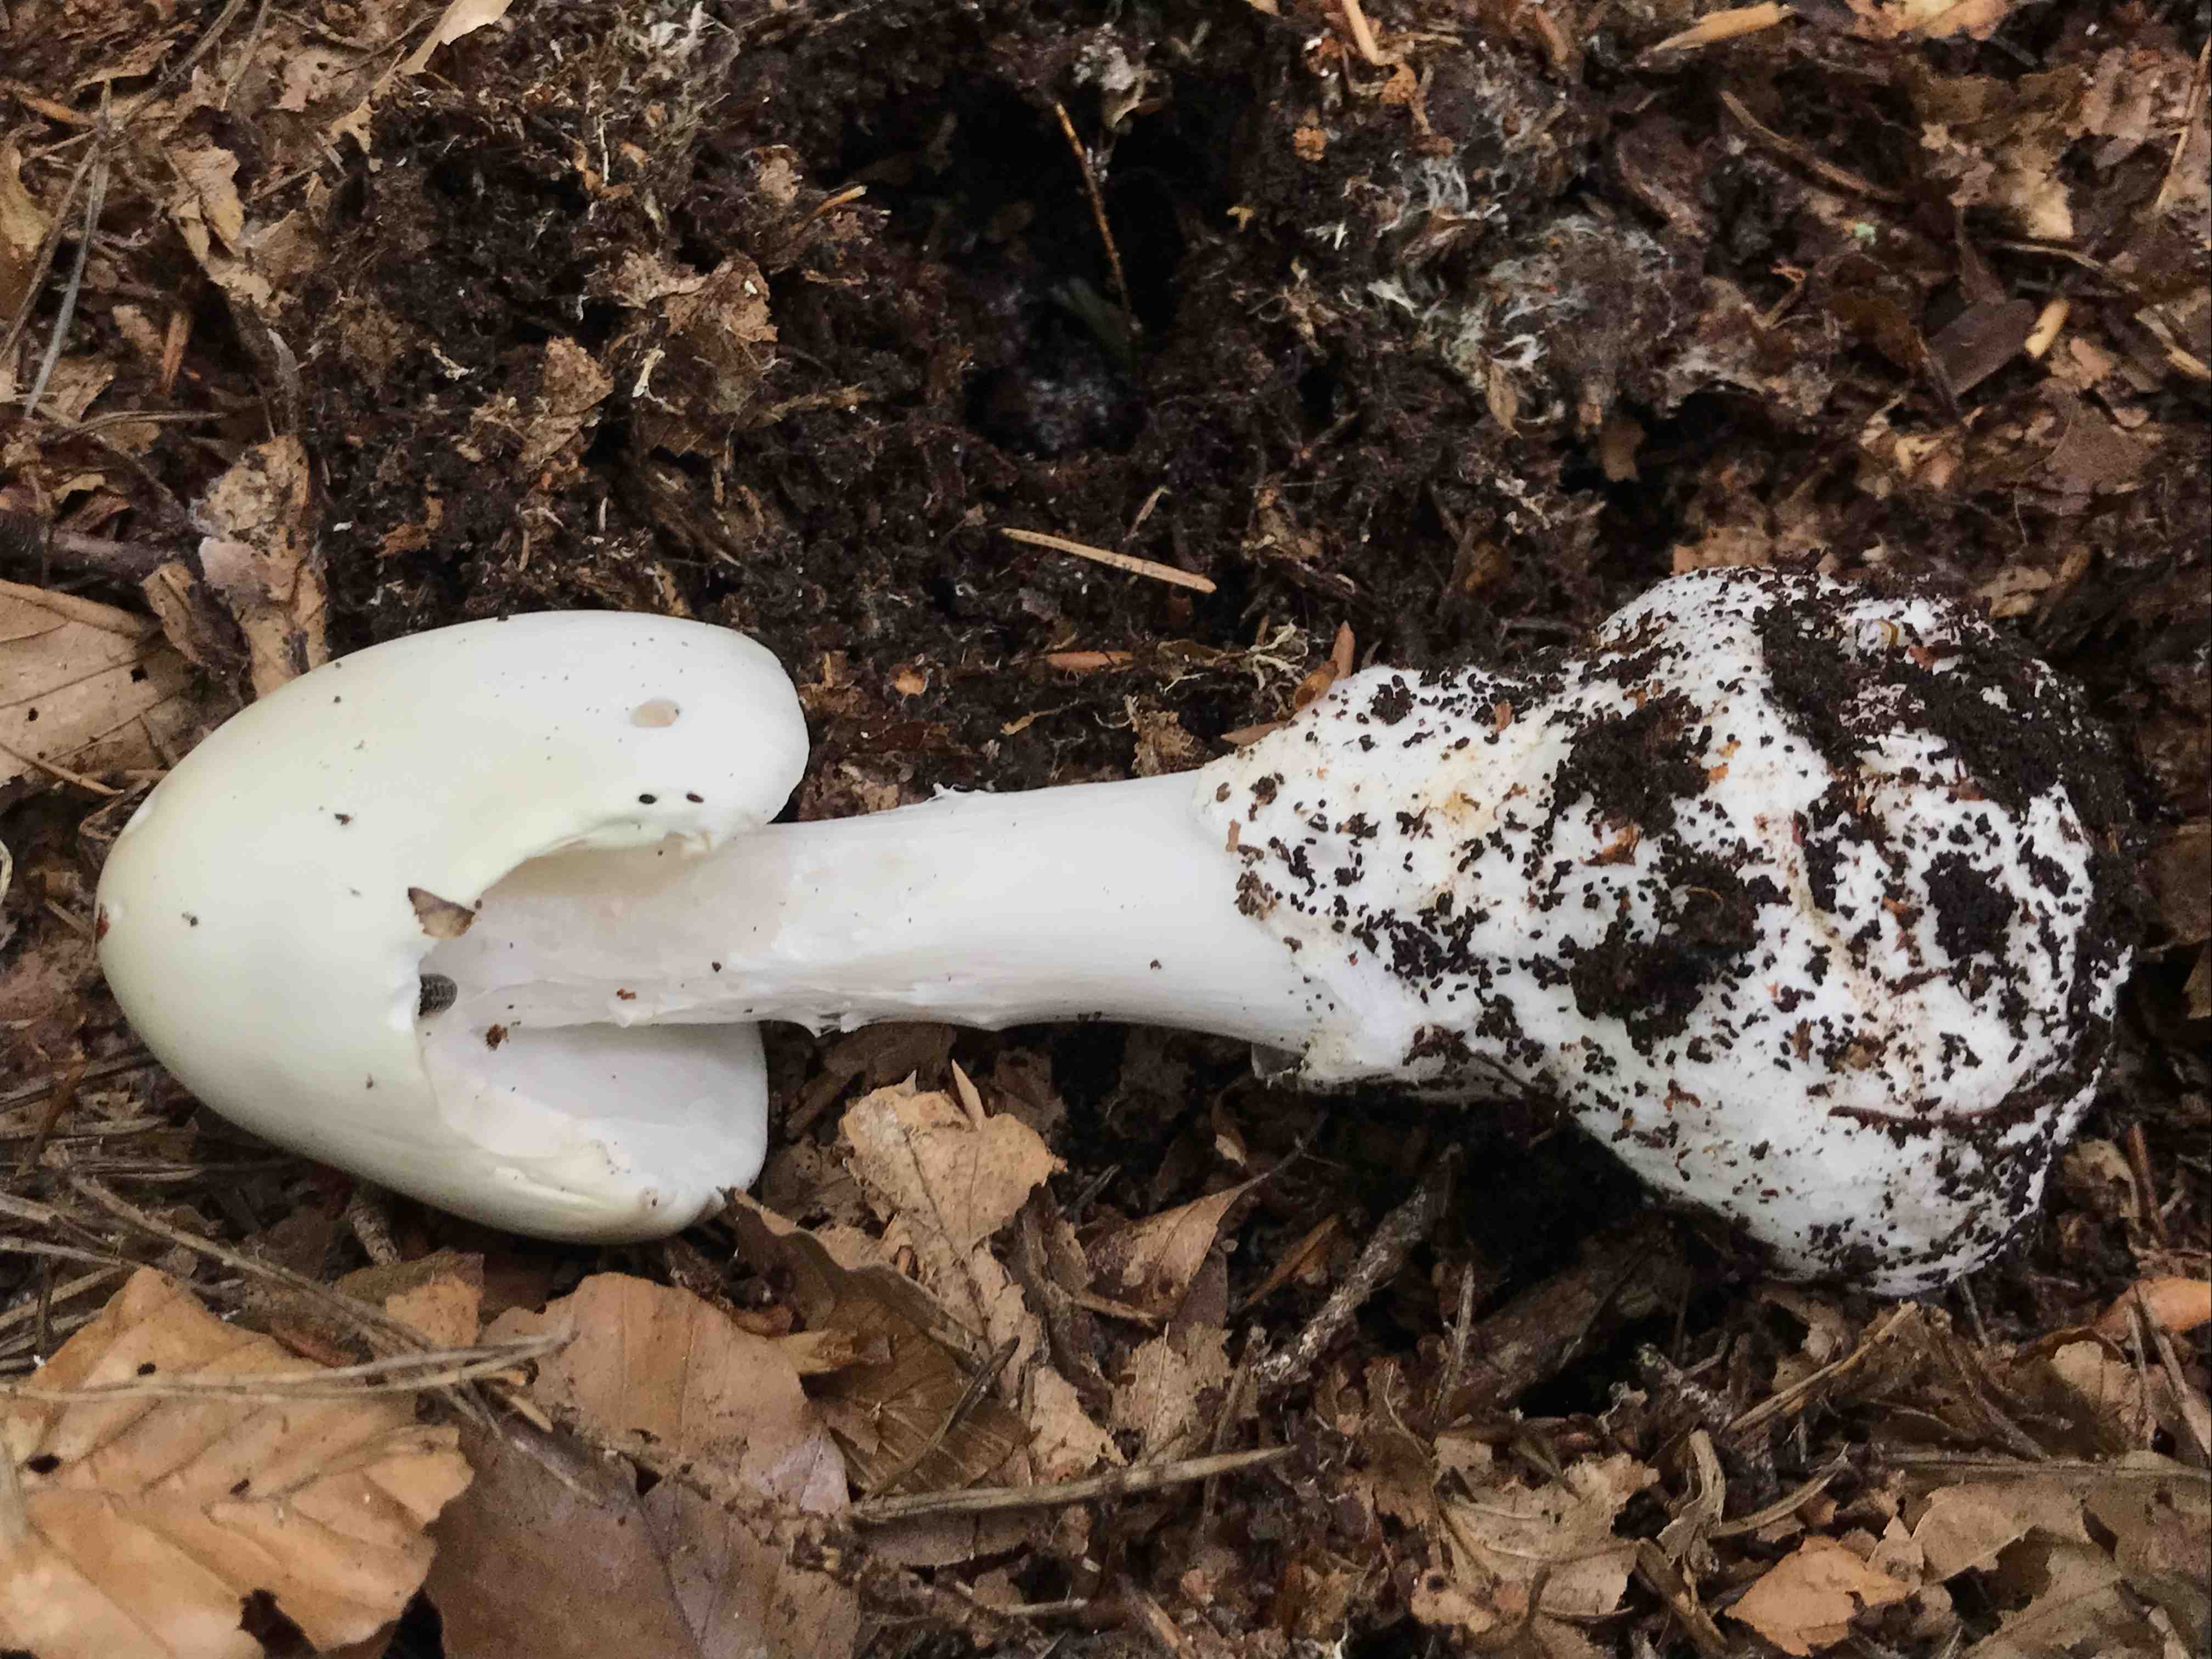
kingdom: Fungi
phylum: Basidiomycota
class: Agaricomycetes
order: Agaricales
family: Amanitaceae
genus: Amanita
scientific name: Amanita virosa
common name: snehvid fluesvamp
